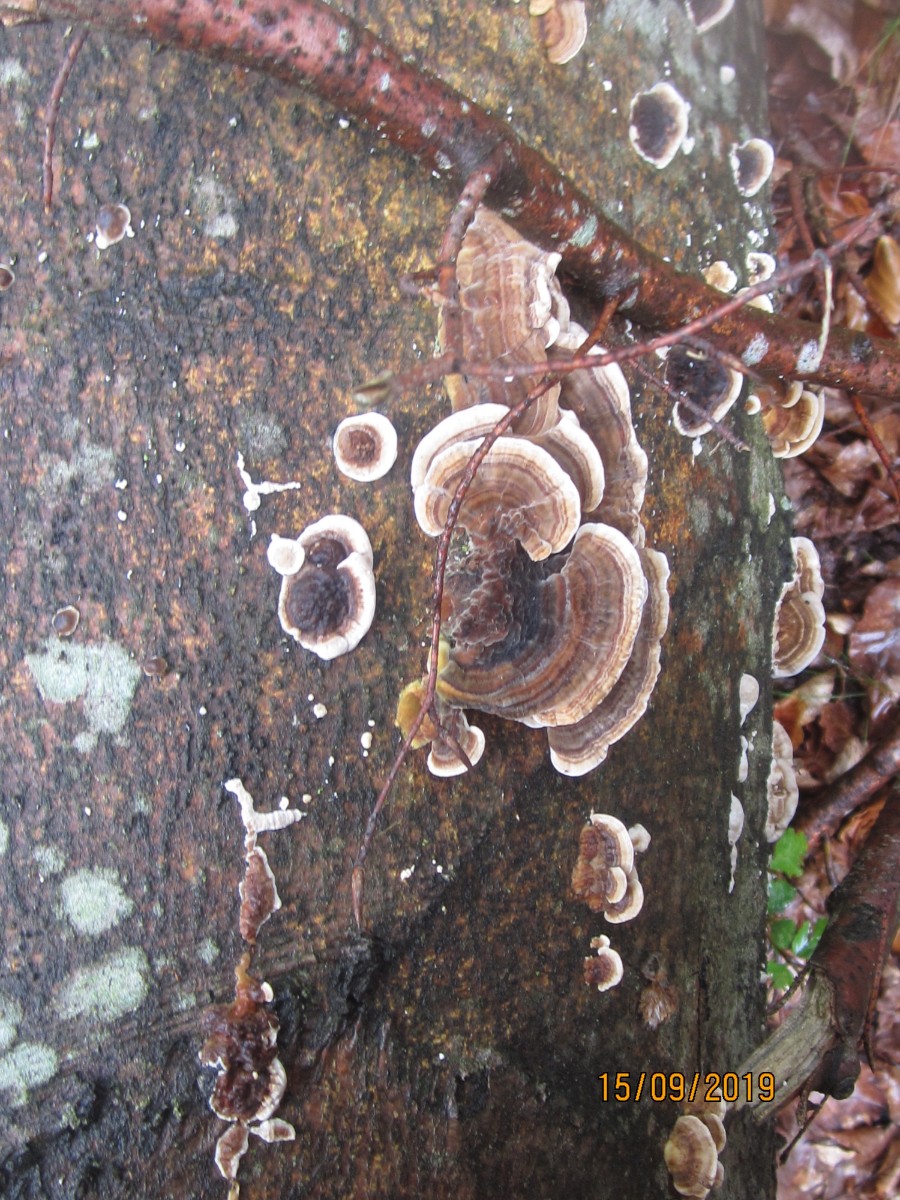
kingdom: Fungi
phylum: Basidiomycota
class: Agaricomycetes
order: Polyporales
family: Polyporaceae
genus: Trametes
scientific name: Trametes versicolor
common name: broget læderporesvamp
